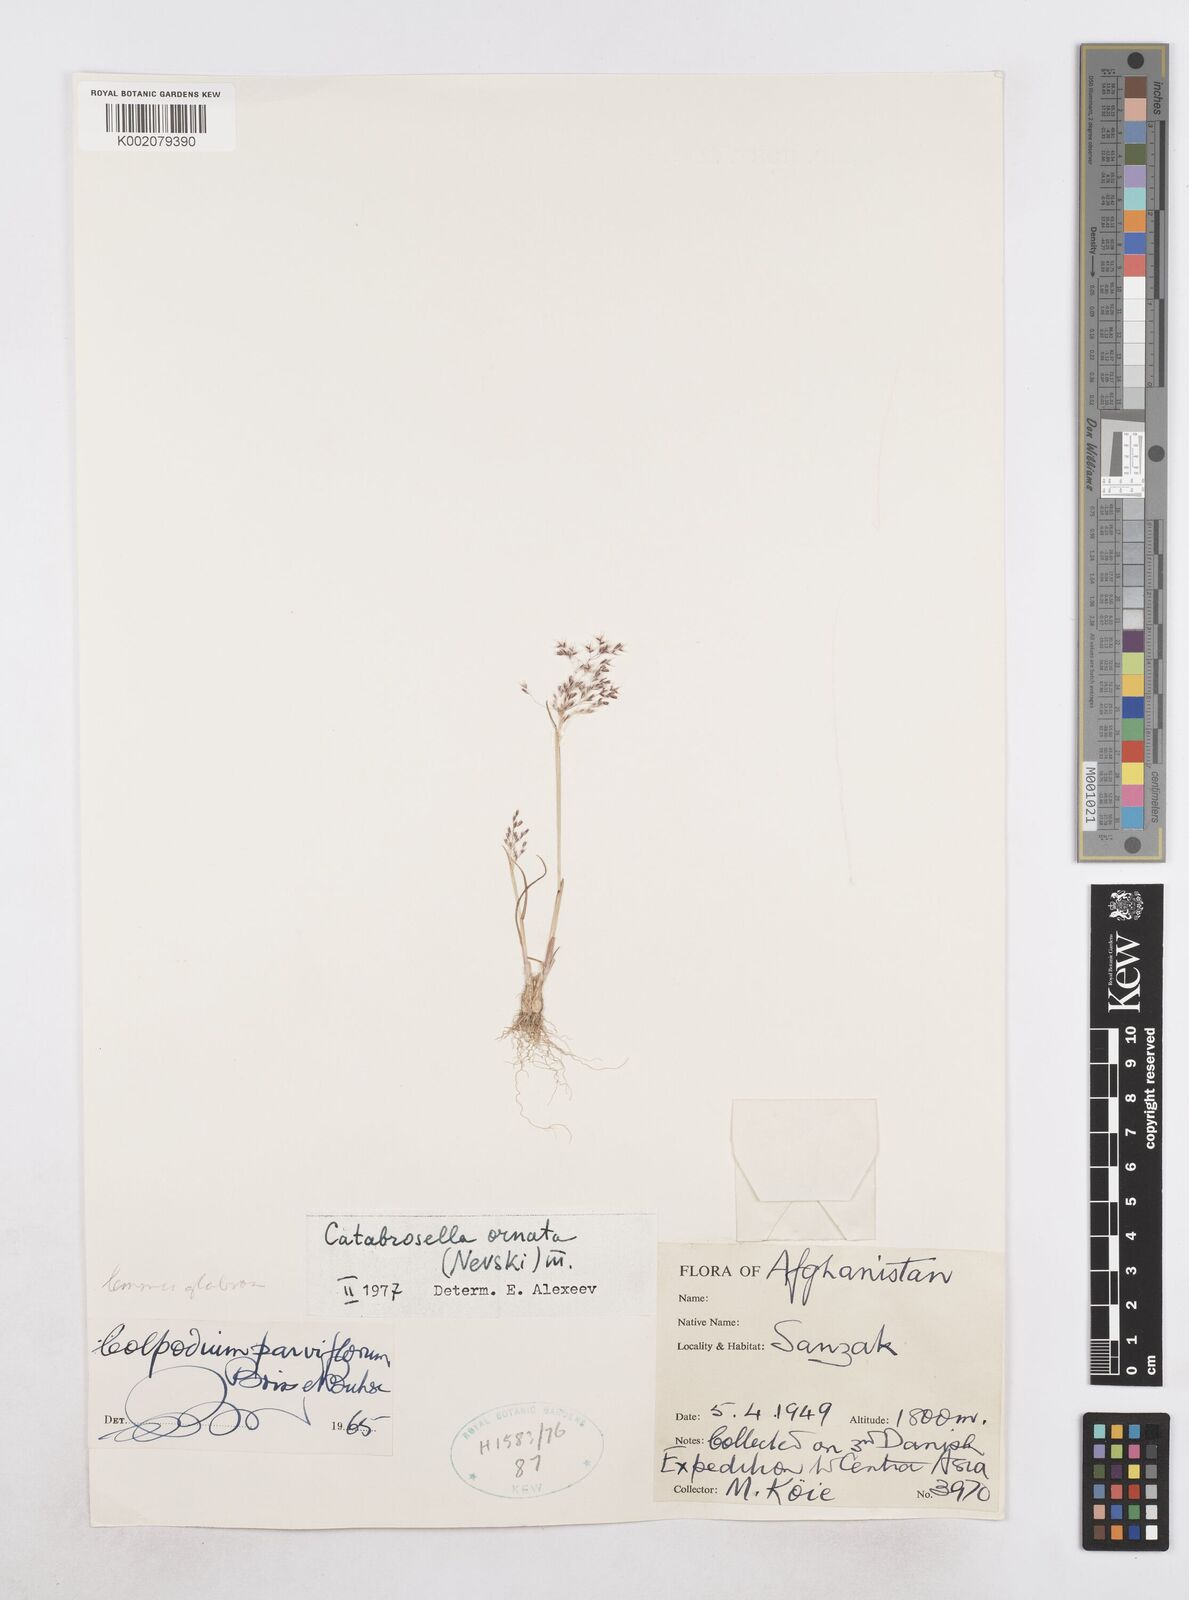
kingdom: Plantae
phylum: Tracheophyta
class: Liliopsida
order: Poales
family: Poaceae
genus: Catabrosella
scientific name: Catabrosella humilis
